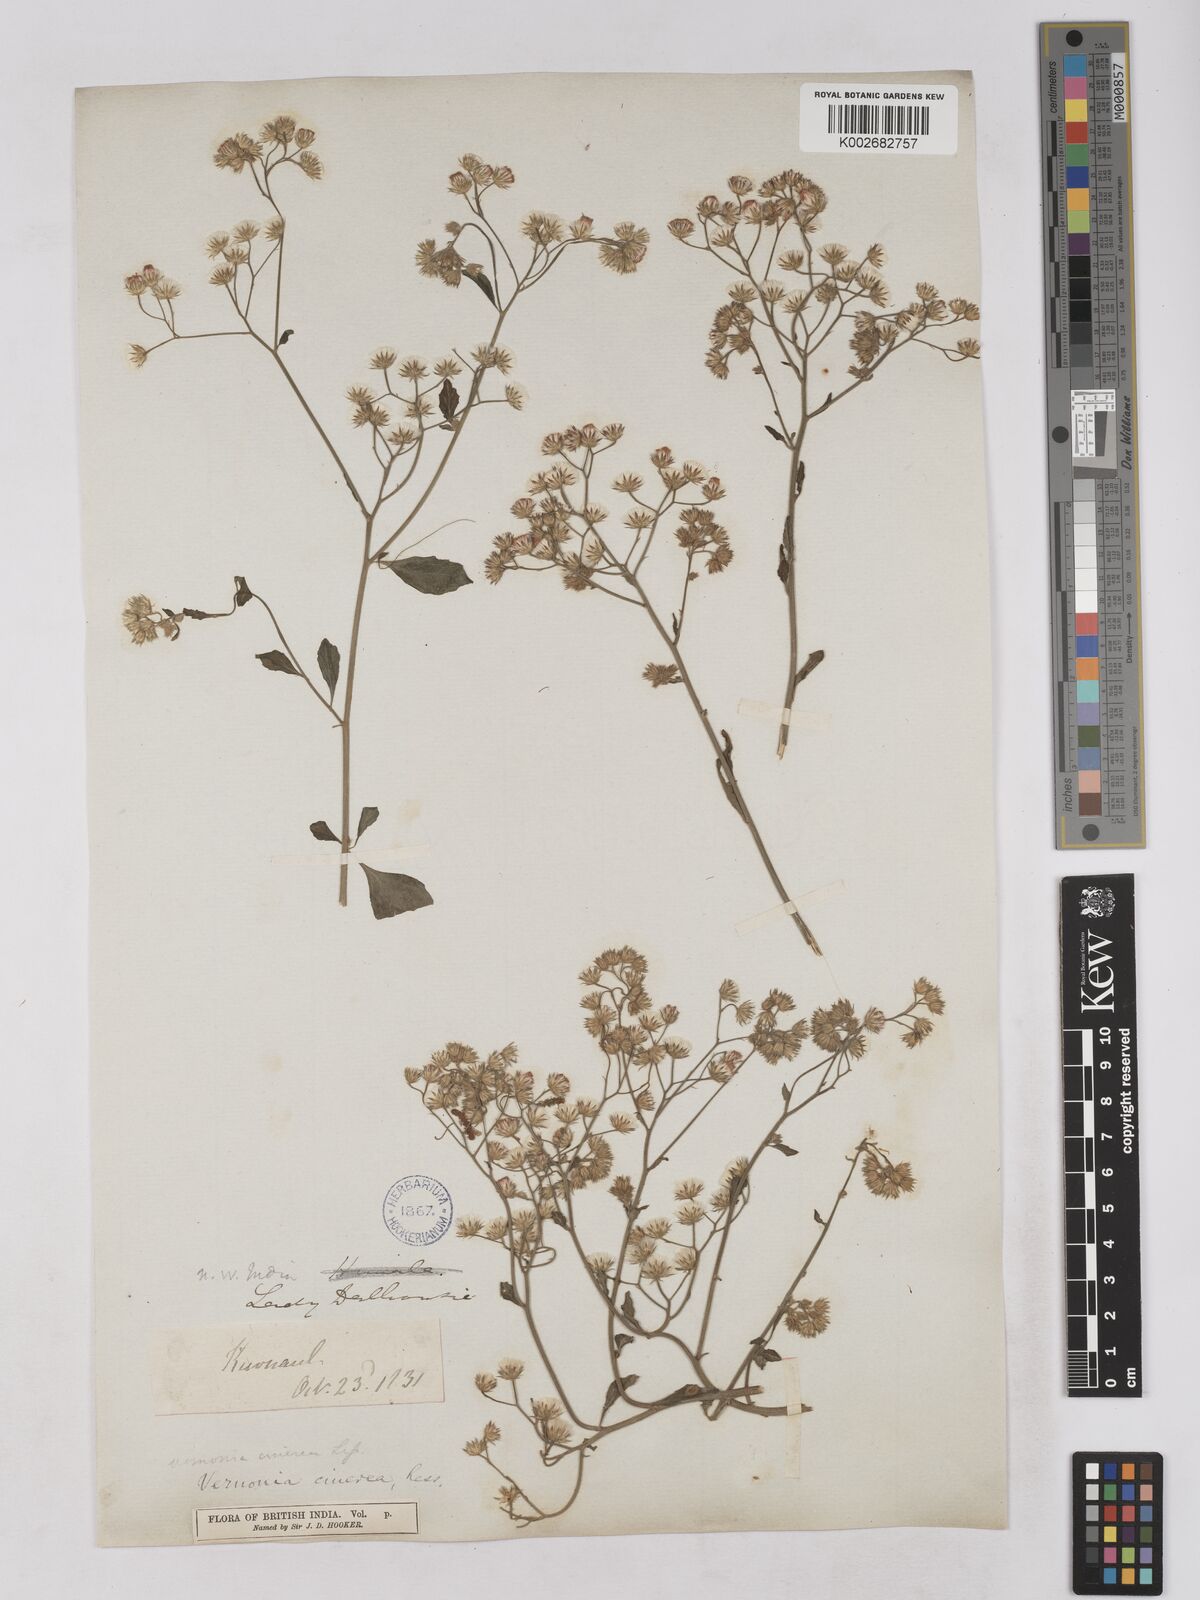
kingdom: Plantae
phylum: Tracheophyta
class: Magnoliopsida
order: Asterales
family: Asteraceae
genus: Cyanthillium
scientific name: Cyanthillium cinereum
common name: Little ironweed
